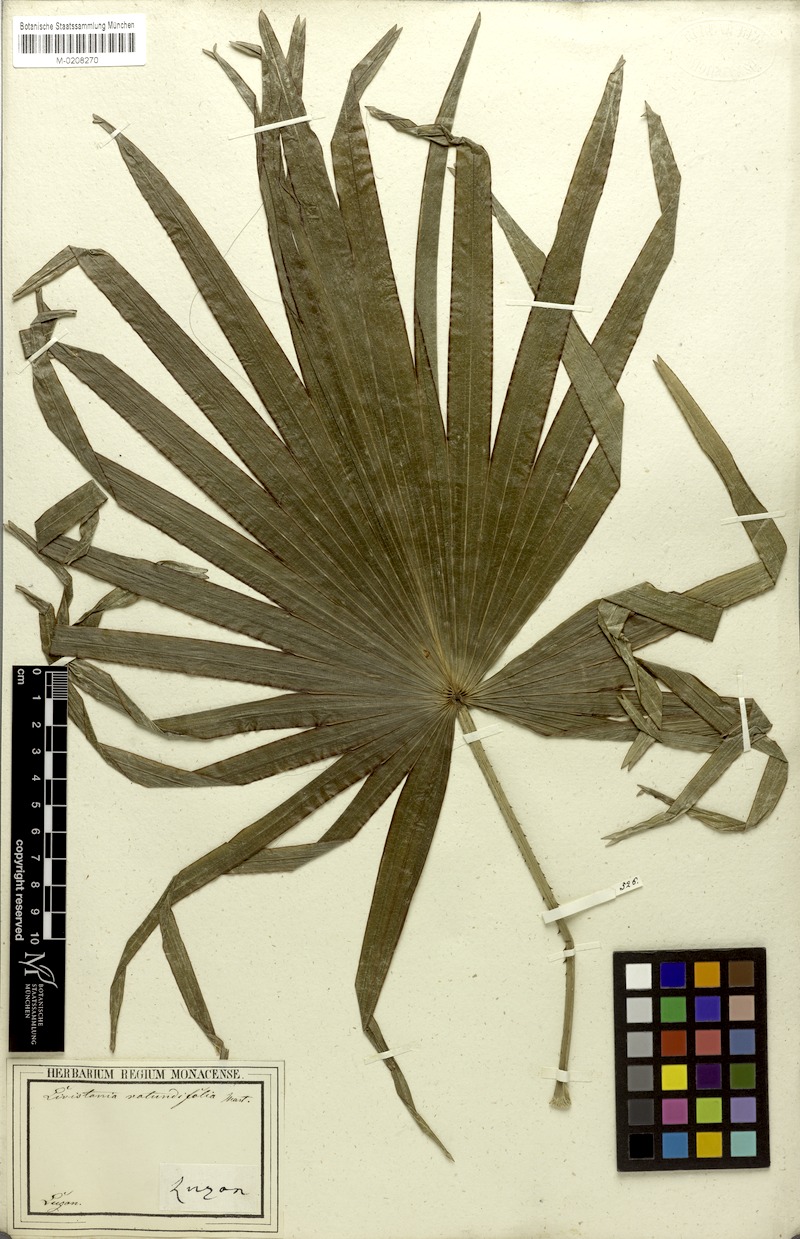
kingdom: Plantae
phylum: Tracheophyta
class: Liliopsida
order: Arecales
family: Arecaceae
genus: Saribus
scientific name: Saribus rotundifolius
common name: Palm
